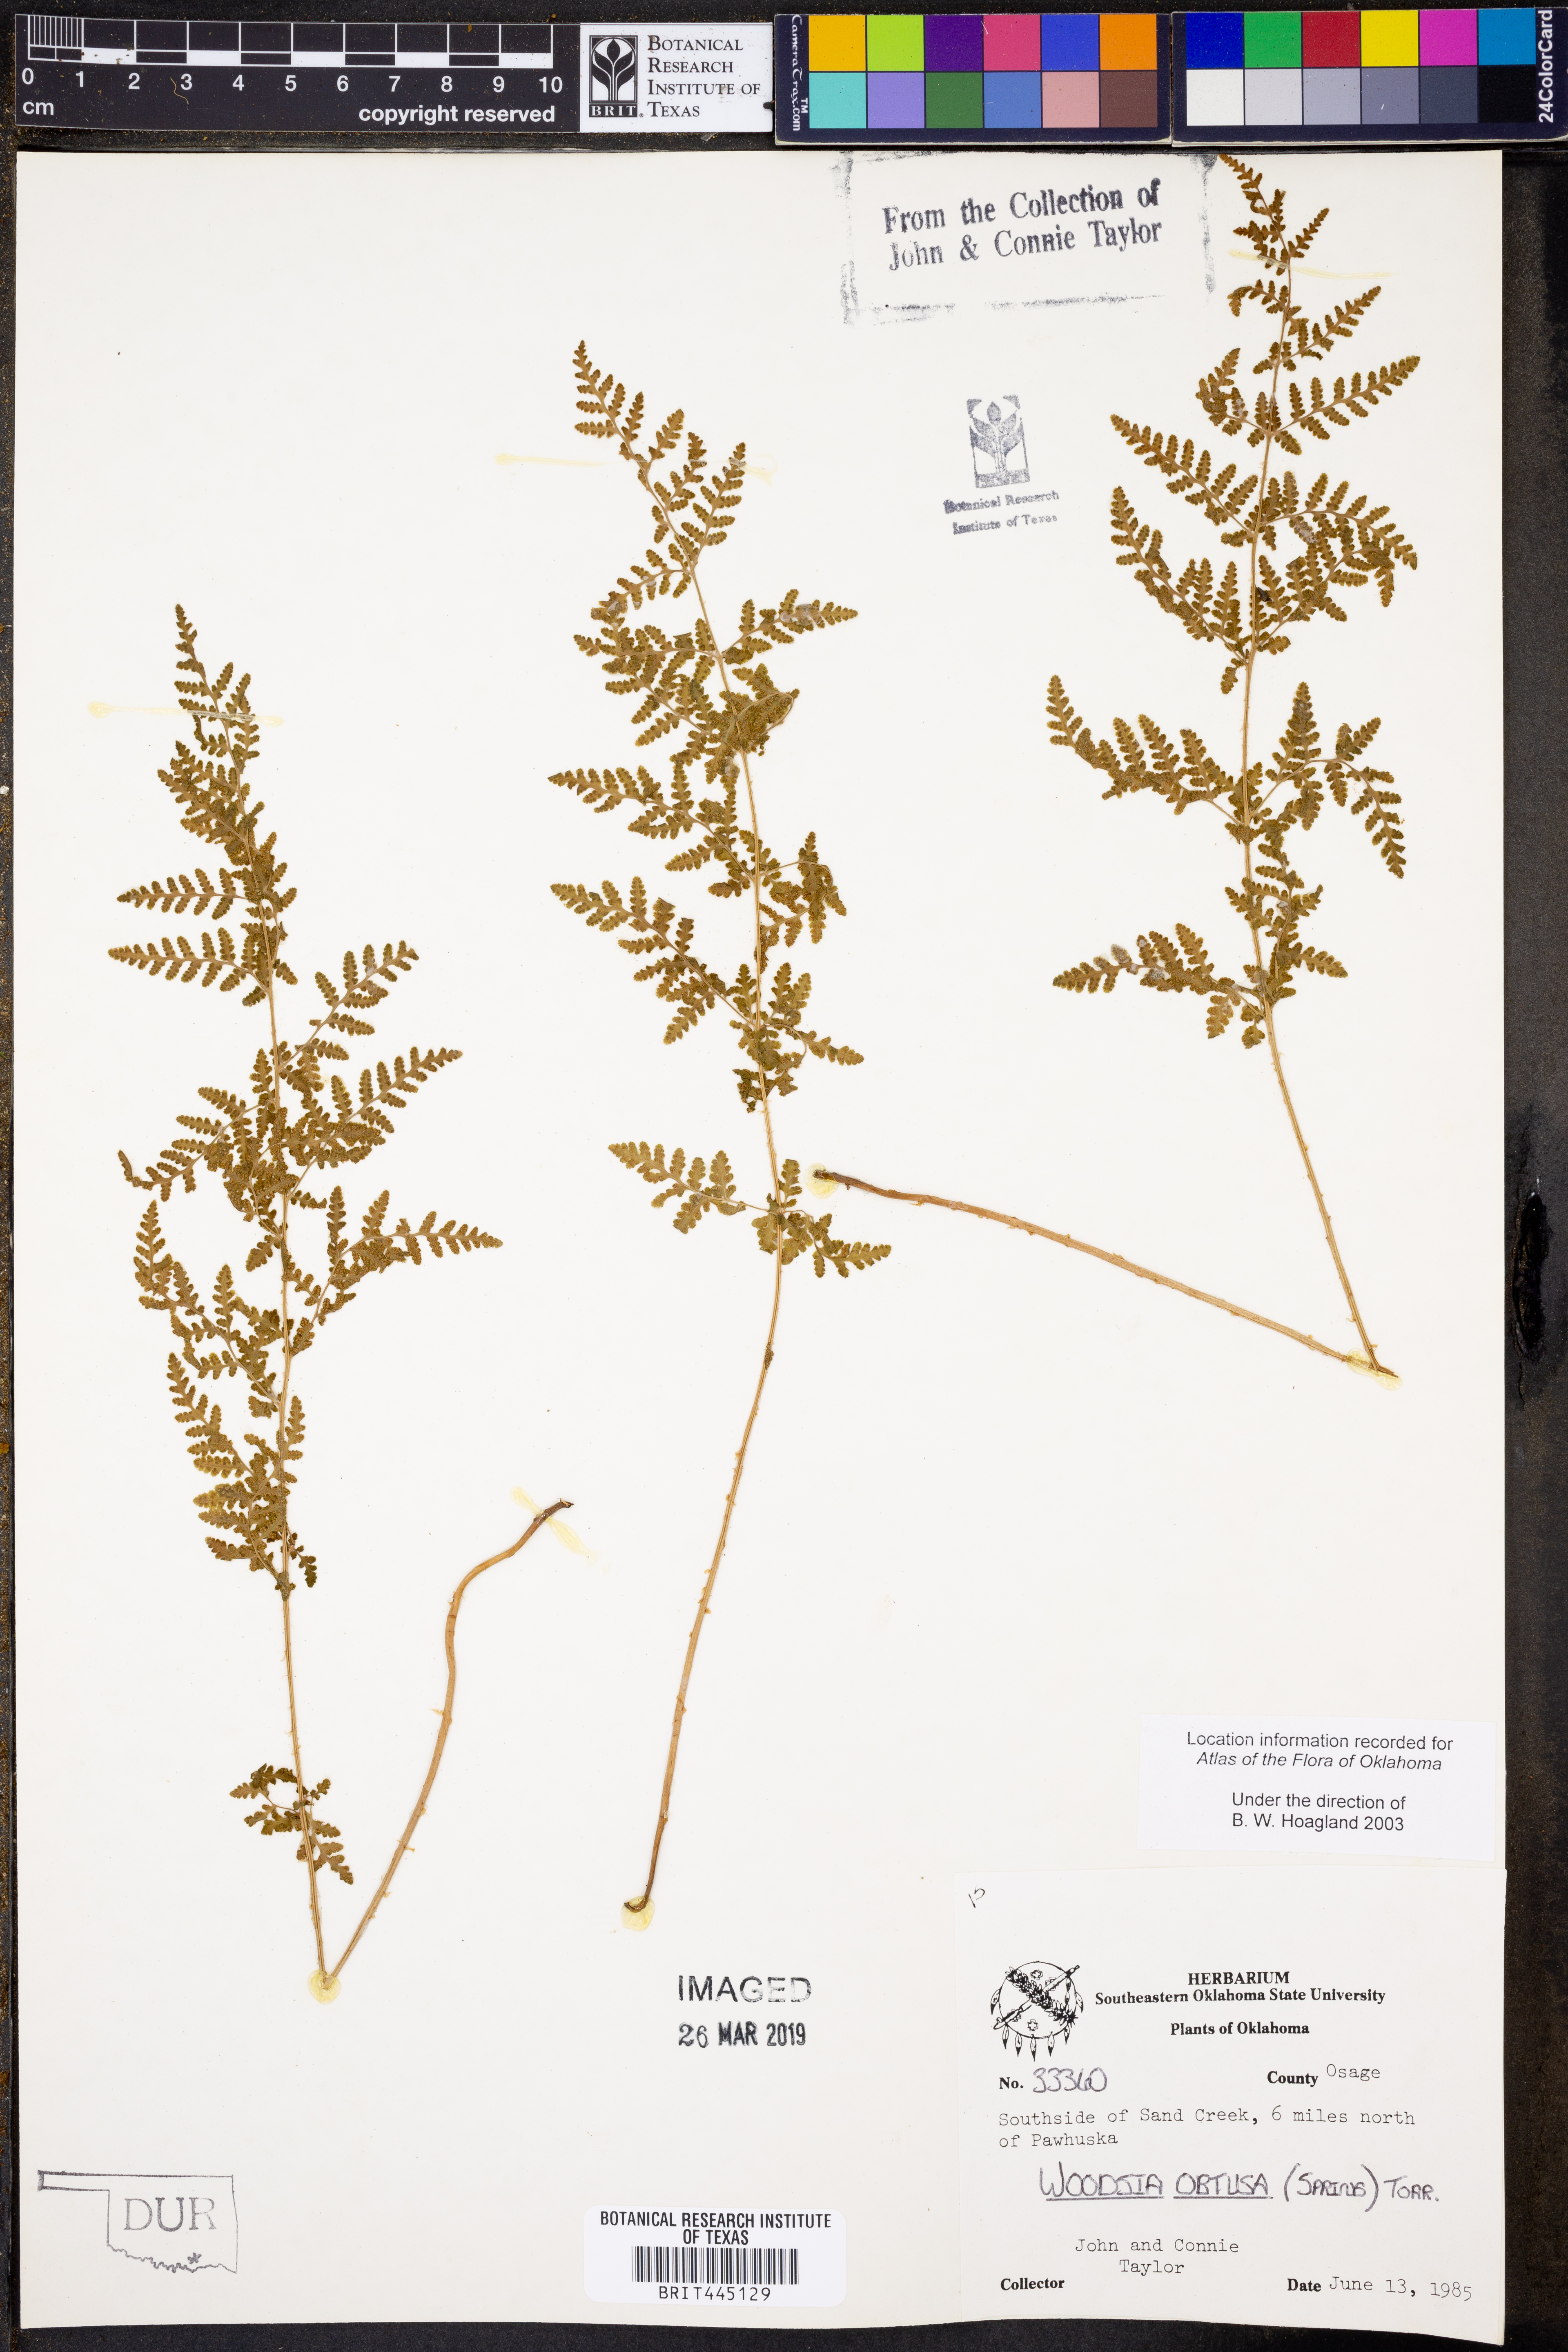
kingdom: Plantae
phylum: Tracheophyta
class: Polypodiopsida
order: Polypodiales
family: Woodsiaceae
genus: Physematium
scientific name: Physematium obtusum
